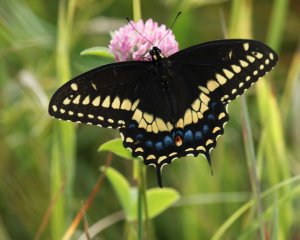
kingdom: Animalia
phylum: Arthropoda
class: Insecta
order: Lepidoptera
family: Papilionidae
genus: Papilio
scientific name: Papilio polyxenes
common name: Black Swallowtail
